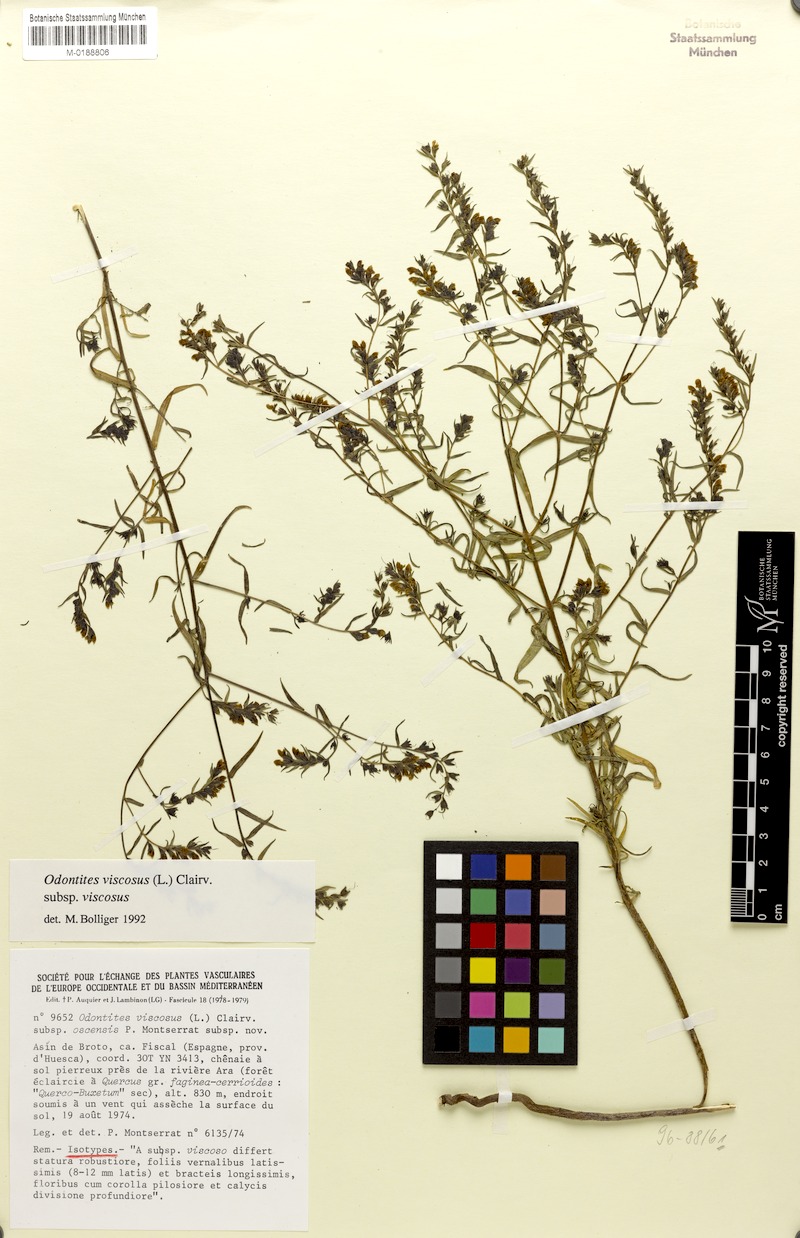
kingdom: Plantae
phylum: Tracheophyta
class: Magnoliopsida
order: Lamiales
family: Orobanchaceae
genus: Odontites
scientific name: Odontites viscosus
